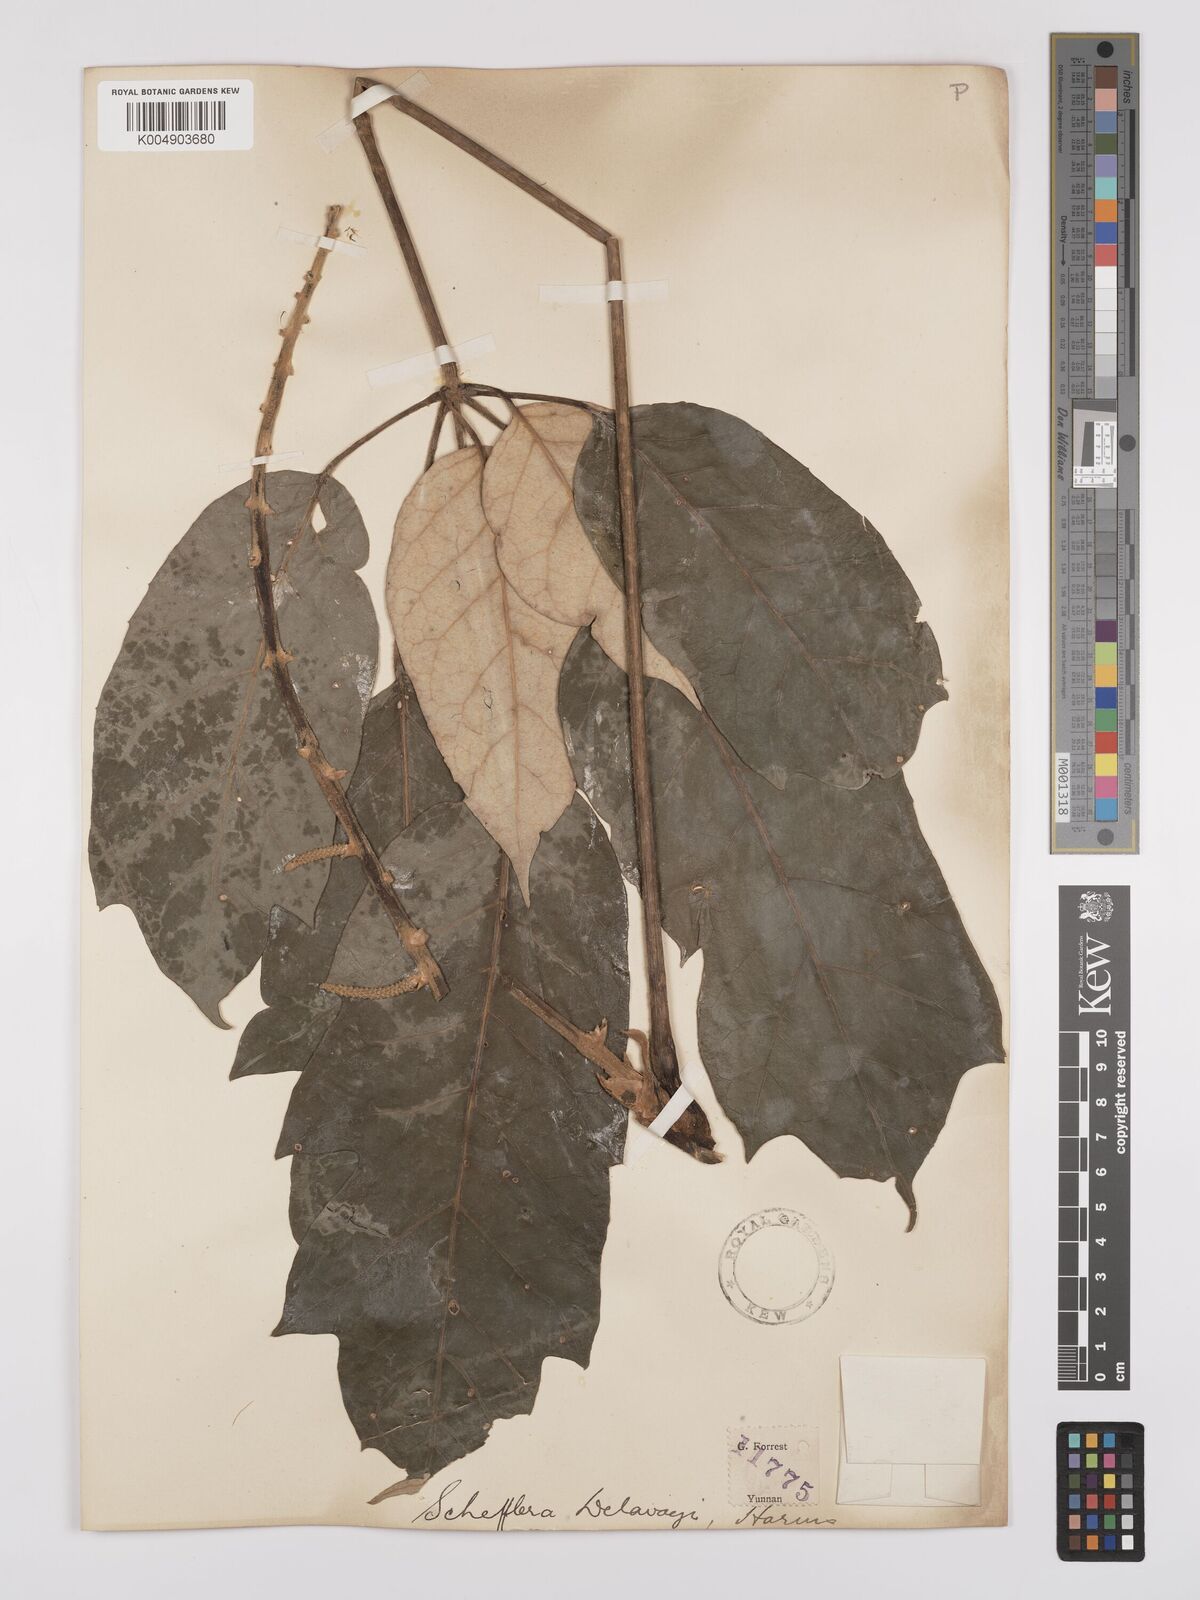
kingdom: Plantae
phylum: Tracheophyta
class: Magnoliopsida
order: Apiales
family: Araliaceae
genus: Heptapleurum
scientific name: Heptapleurum delavayi
